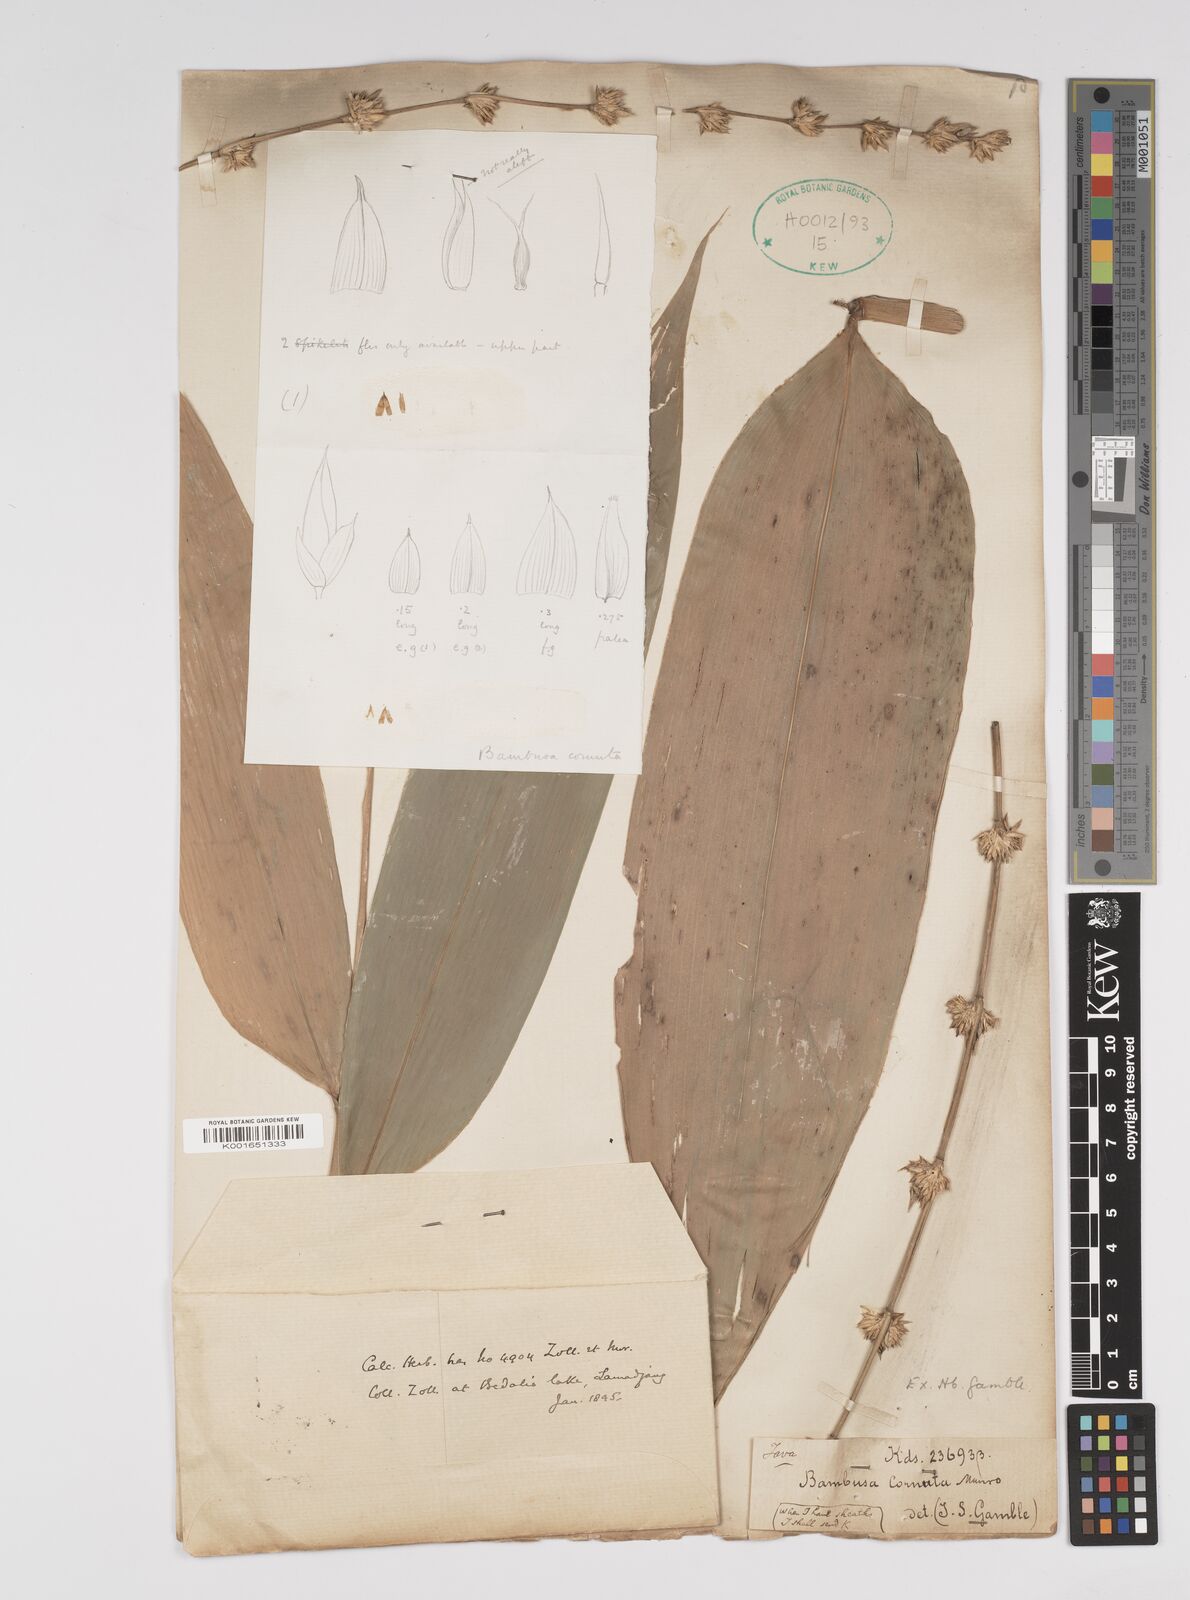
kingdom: Plantae
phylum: Tracheophyta
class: Liliopsida
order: Poales
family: Poaceae
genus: Bambusa
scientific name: Bambusa fruticosa
